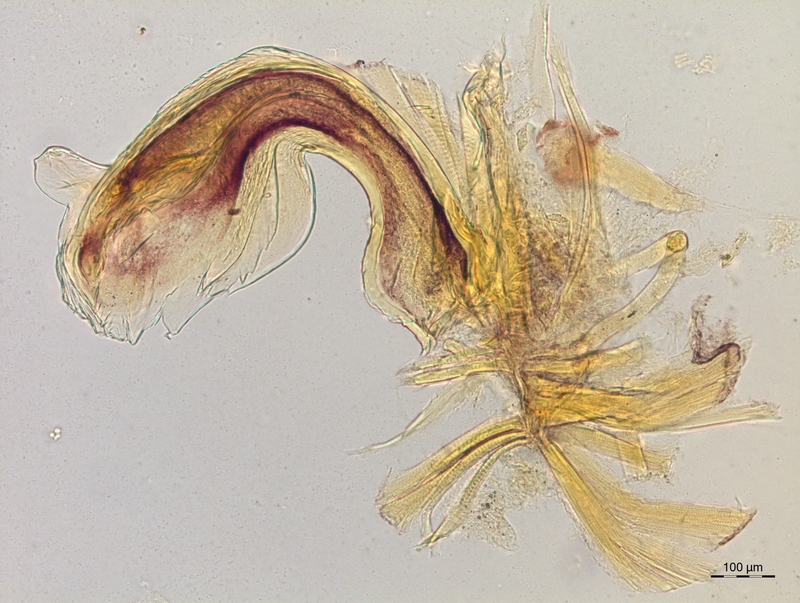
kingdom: Animalia
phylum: Arthropoda
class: Diplopoda
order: Chordeumatida
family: Craspedosomatidae
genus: Craspedosoma
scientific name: Craspedosoma taurinorum
